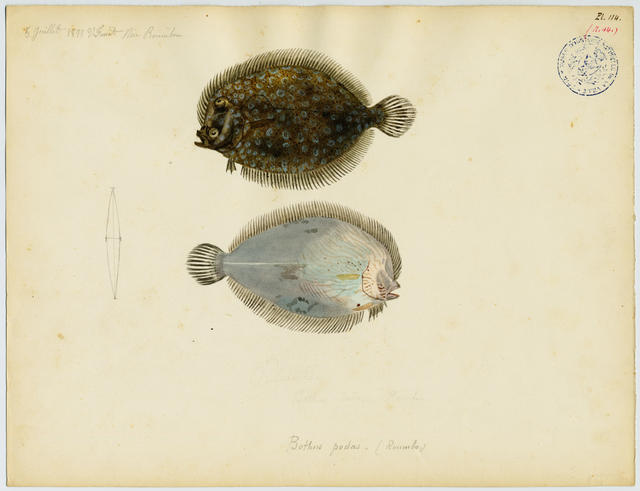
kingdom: Animalia
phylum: Chordata
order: Pleuronectiformes
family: Bothidae
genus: Bothus
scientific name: Bothus podas
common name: Wide-eyed flounder
